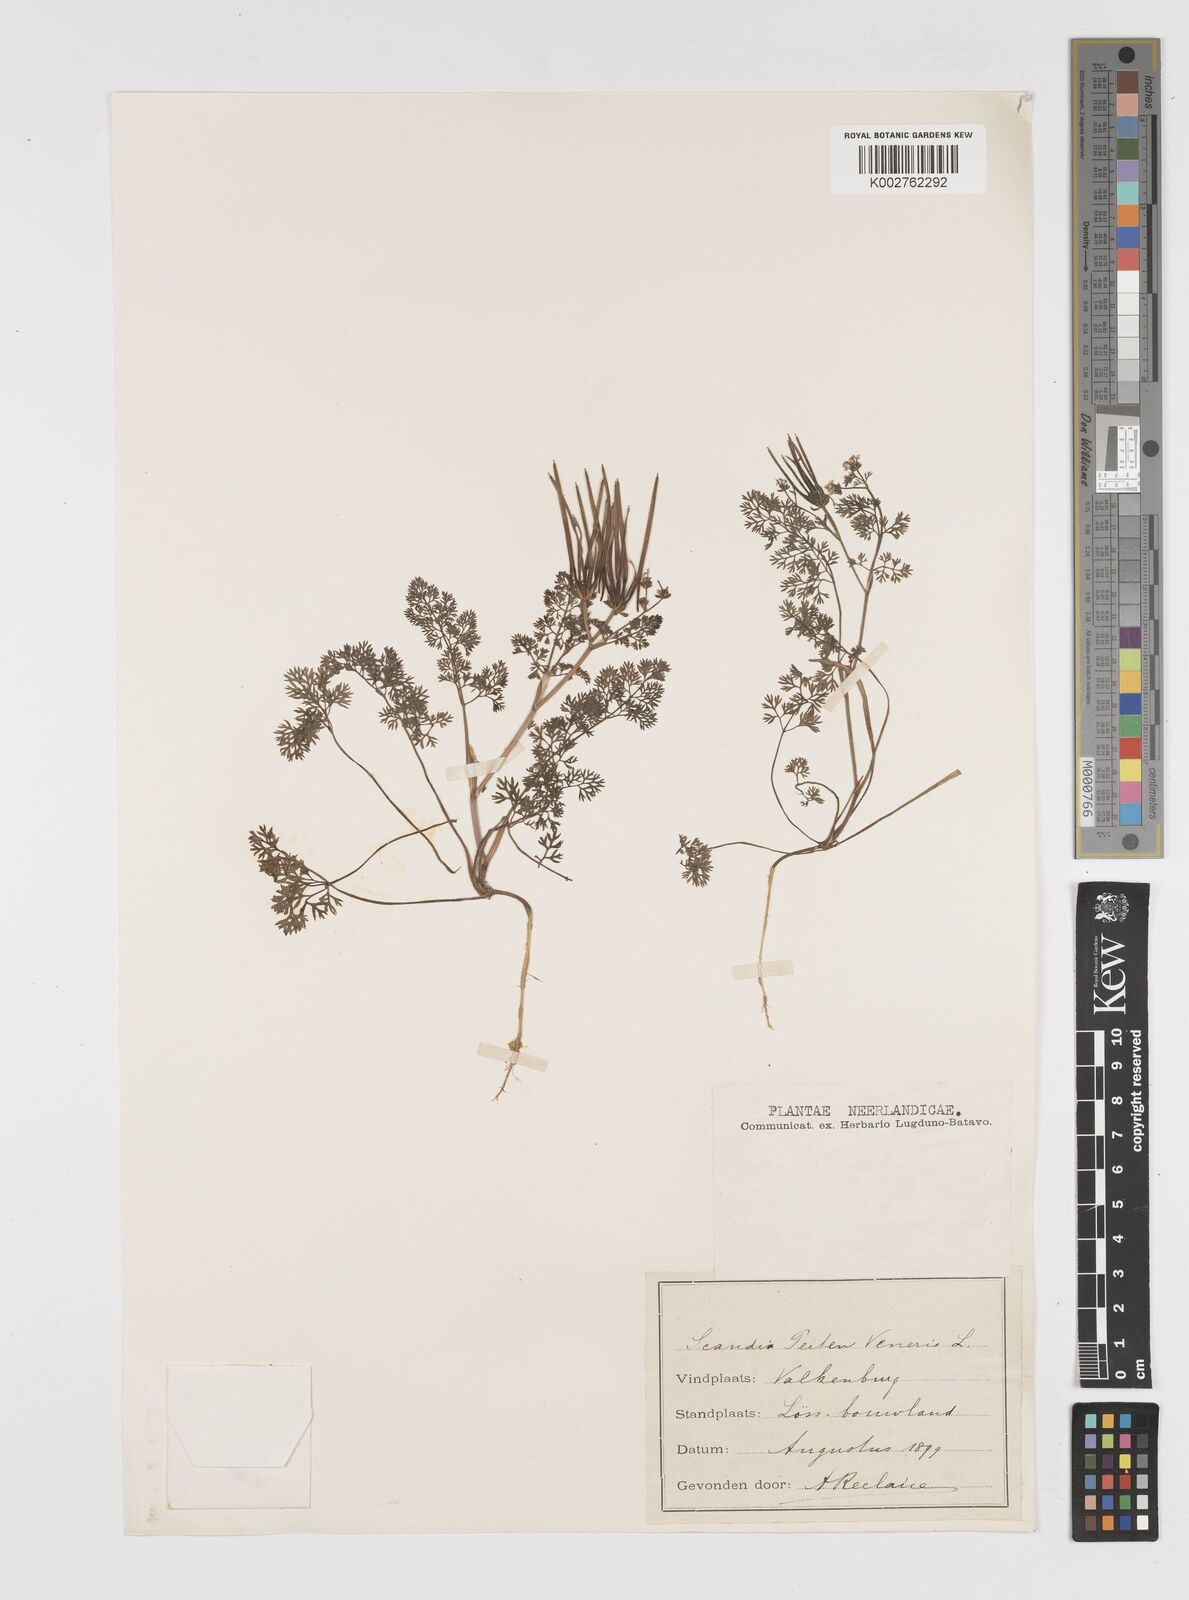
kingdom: Plantae
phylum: Tracheophyta
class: Magnoliopsida
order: Apiales
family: Apiaceae
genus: Scandix
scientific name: Scandix pecten-veneris
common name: Shepherd's-needle
